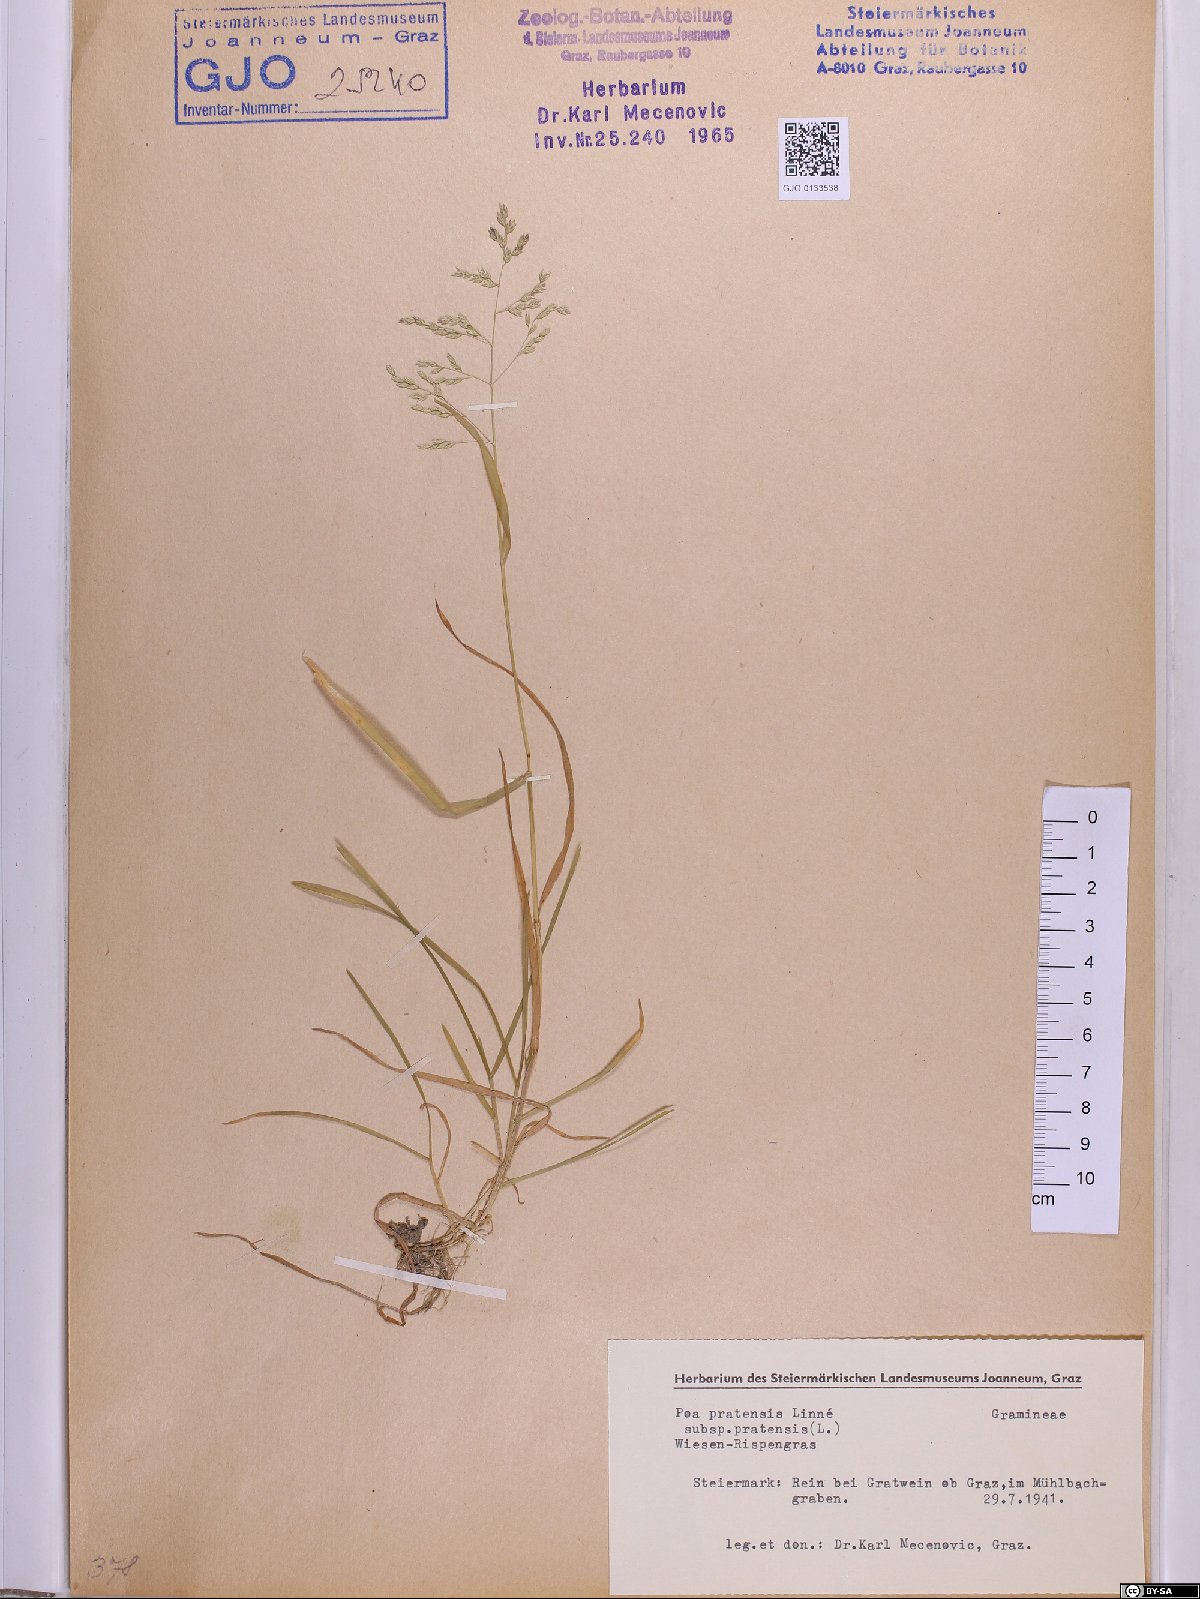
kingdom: Plantae
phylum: Tracheophyta
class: Liliopsida
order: Poales
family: Poaceae
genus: Poa
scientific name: Poa pratensis
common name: Kentucky bluegrass
